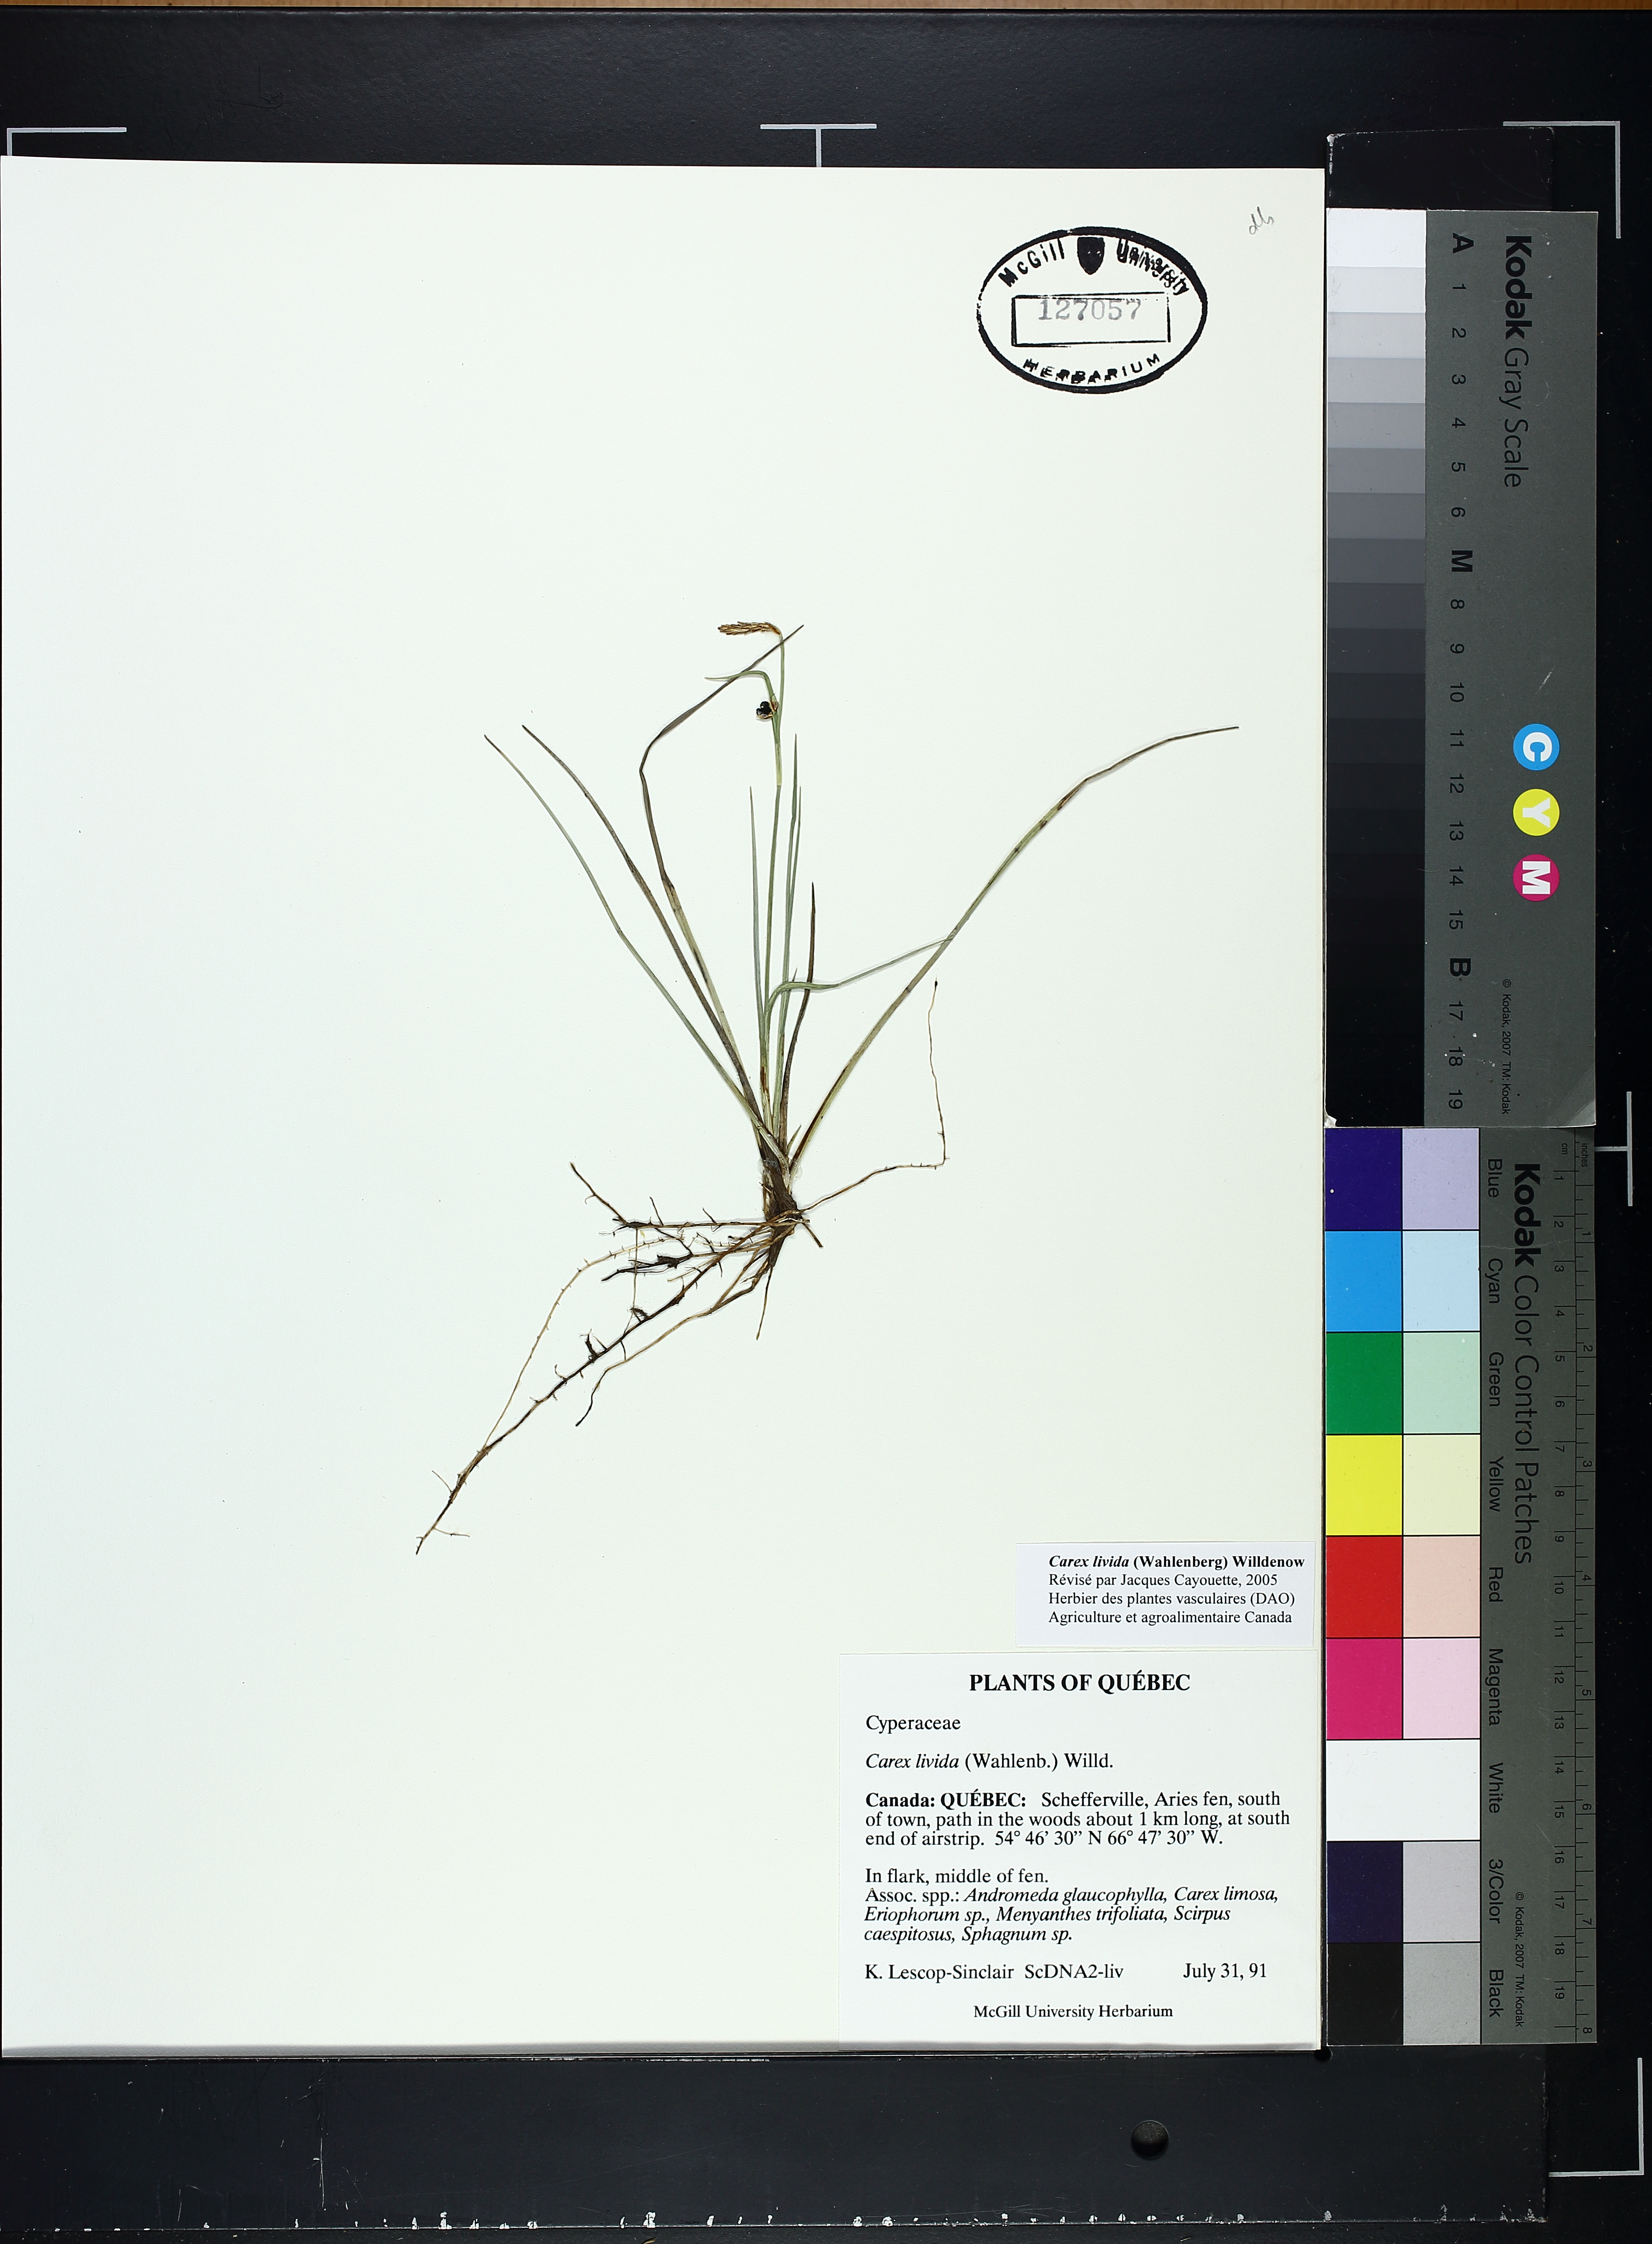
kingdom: Plantae
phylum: Tracheophyta
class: Liliopsida
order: Poales
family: Cyperaceae
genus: Carex
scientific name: Carex livida
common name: Livid sedge
